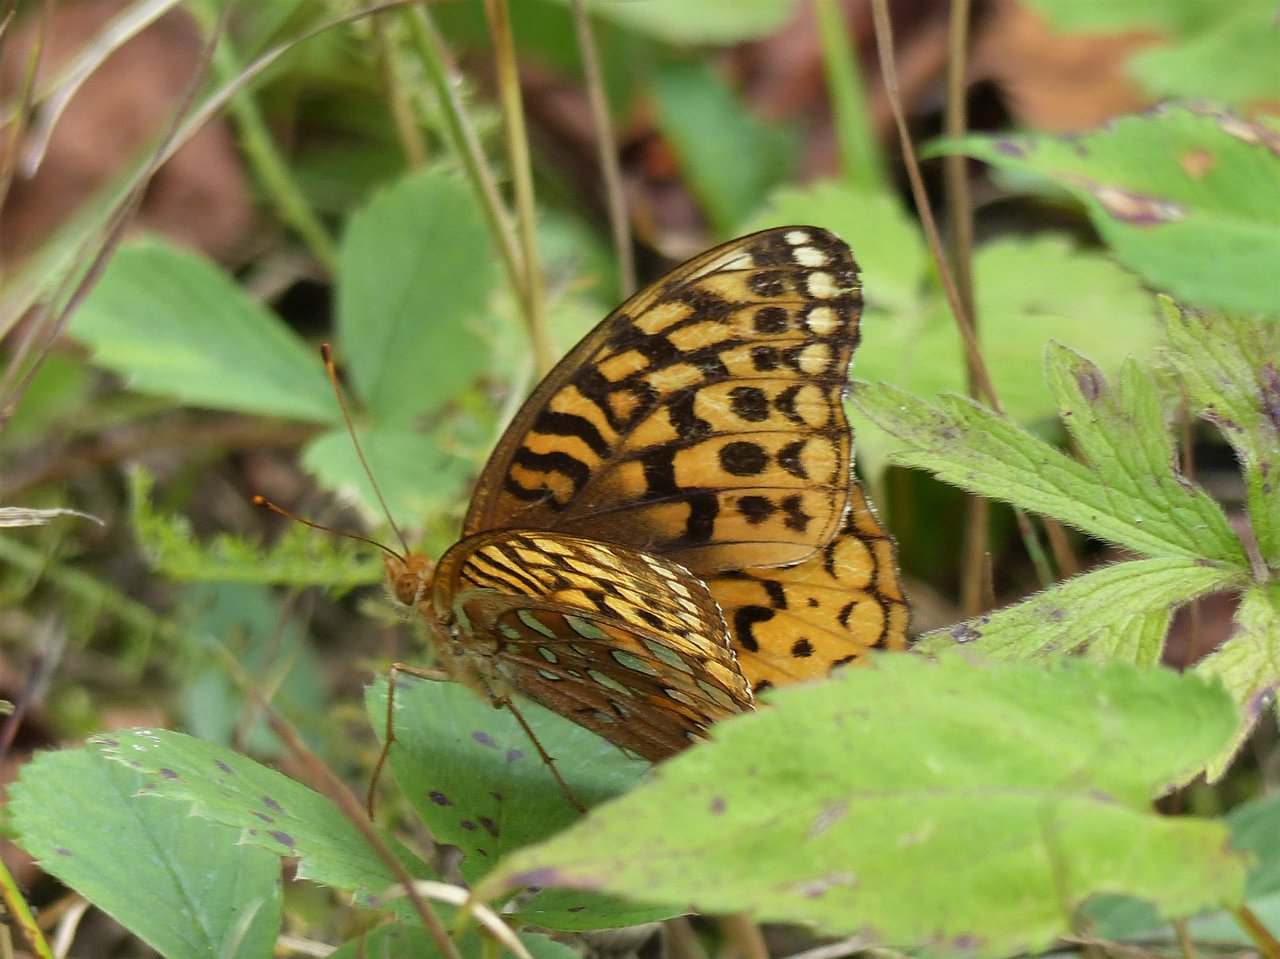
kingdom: Animalia
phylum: Arthropoda
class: Insecta
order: Lepidoptera
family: Nymphalidae
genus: Speyeria
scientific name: Speyeria cybele
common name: Great Spangled Fritillary
